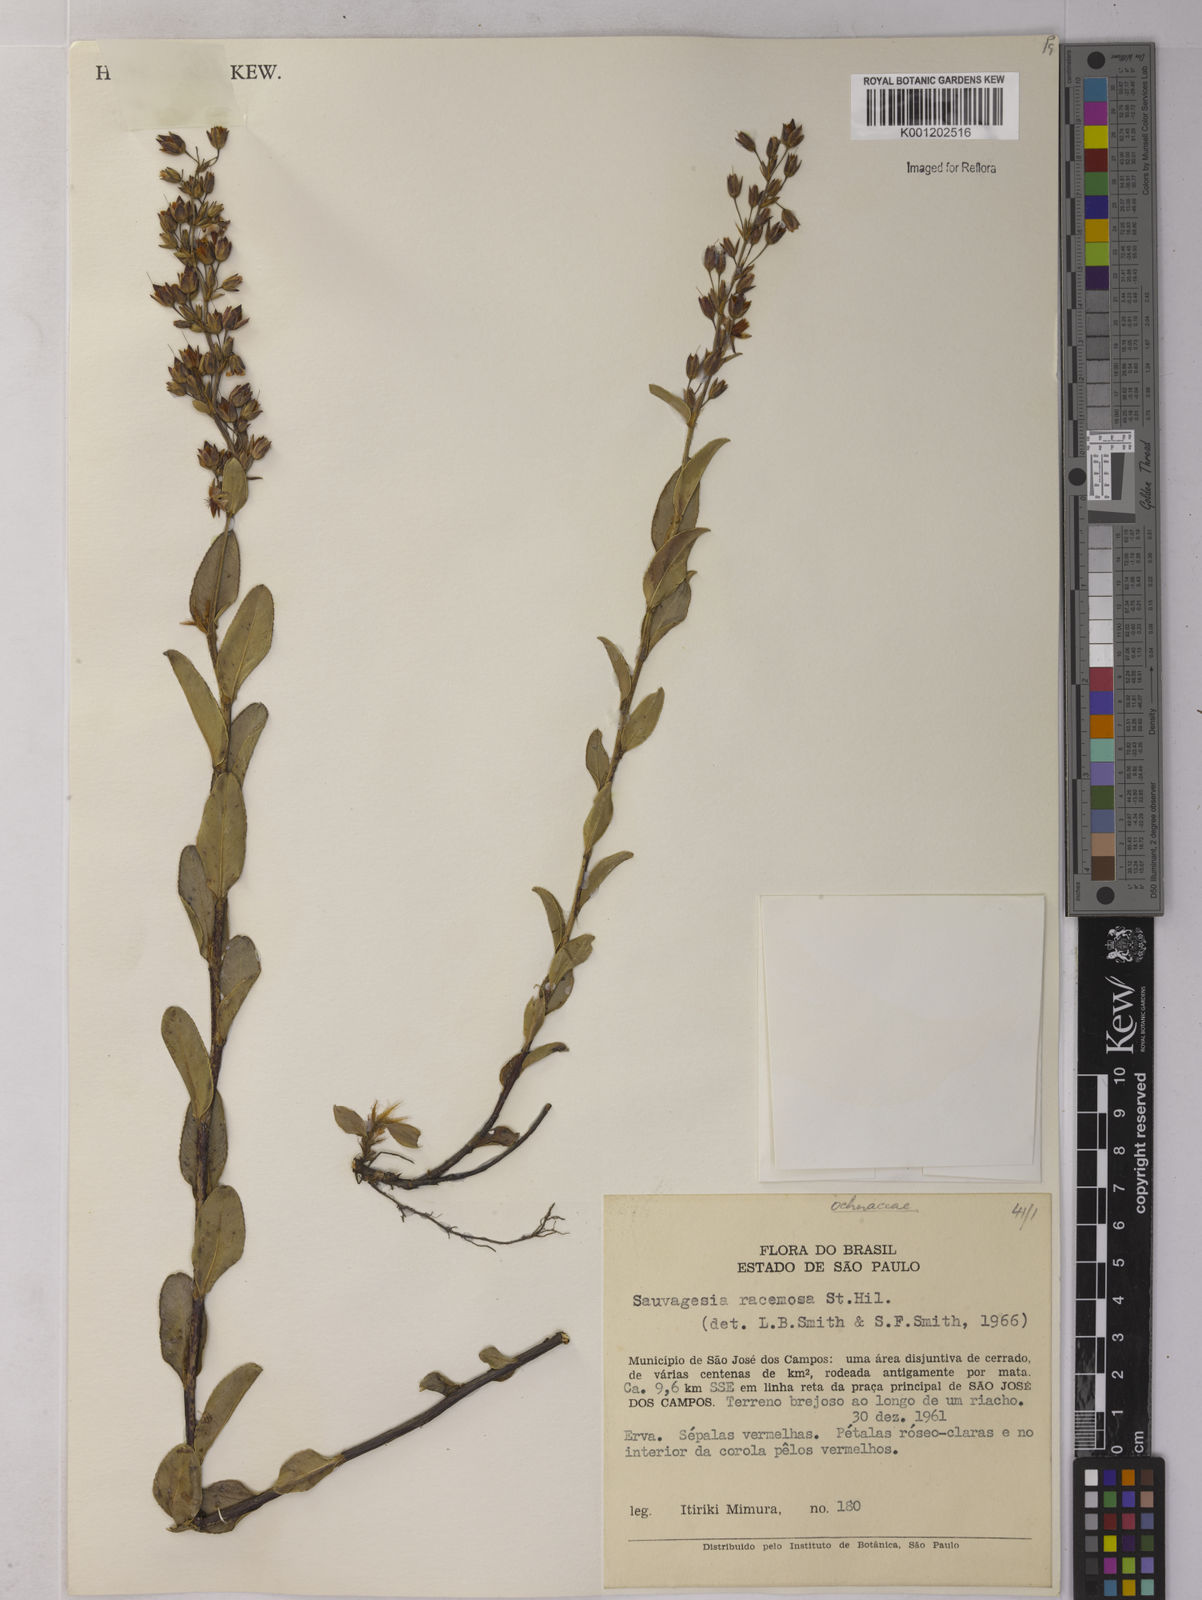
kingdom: Plantae
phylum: Tracheophyta
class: Magnoliopsida
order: Malpighiales
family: Ochnaceae
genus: Sauvagesia
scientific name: Sauvagesia racemosa
